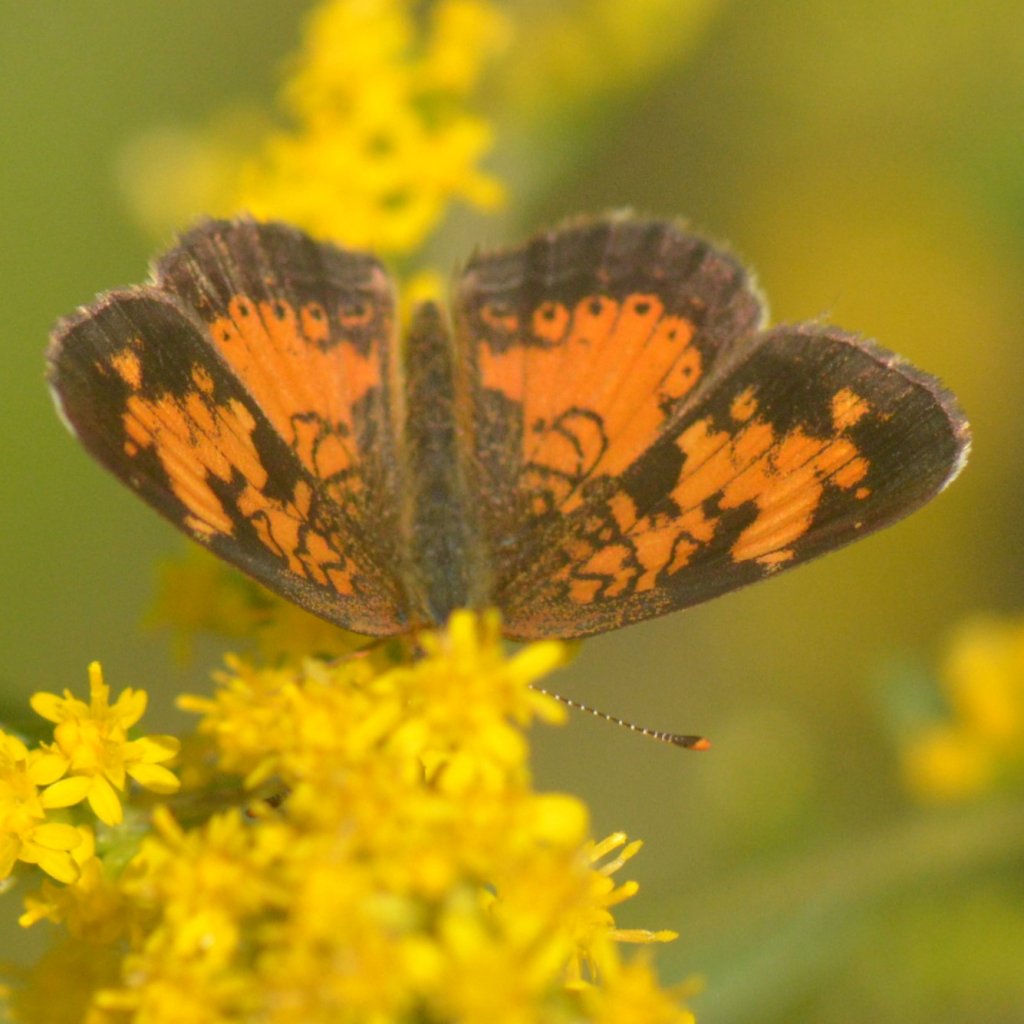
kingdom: Animalia
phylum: Arthropoda
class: Insecta
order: Lepidoptera
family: Nymphalidae
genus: Phyciodes
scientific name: Phyciodes tharos
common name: Northern Crescent
